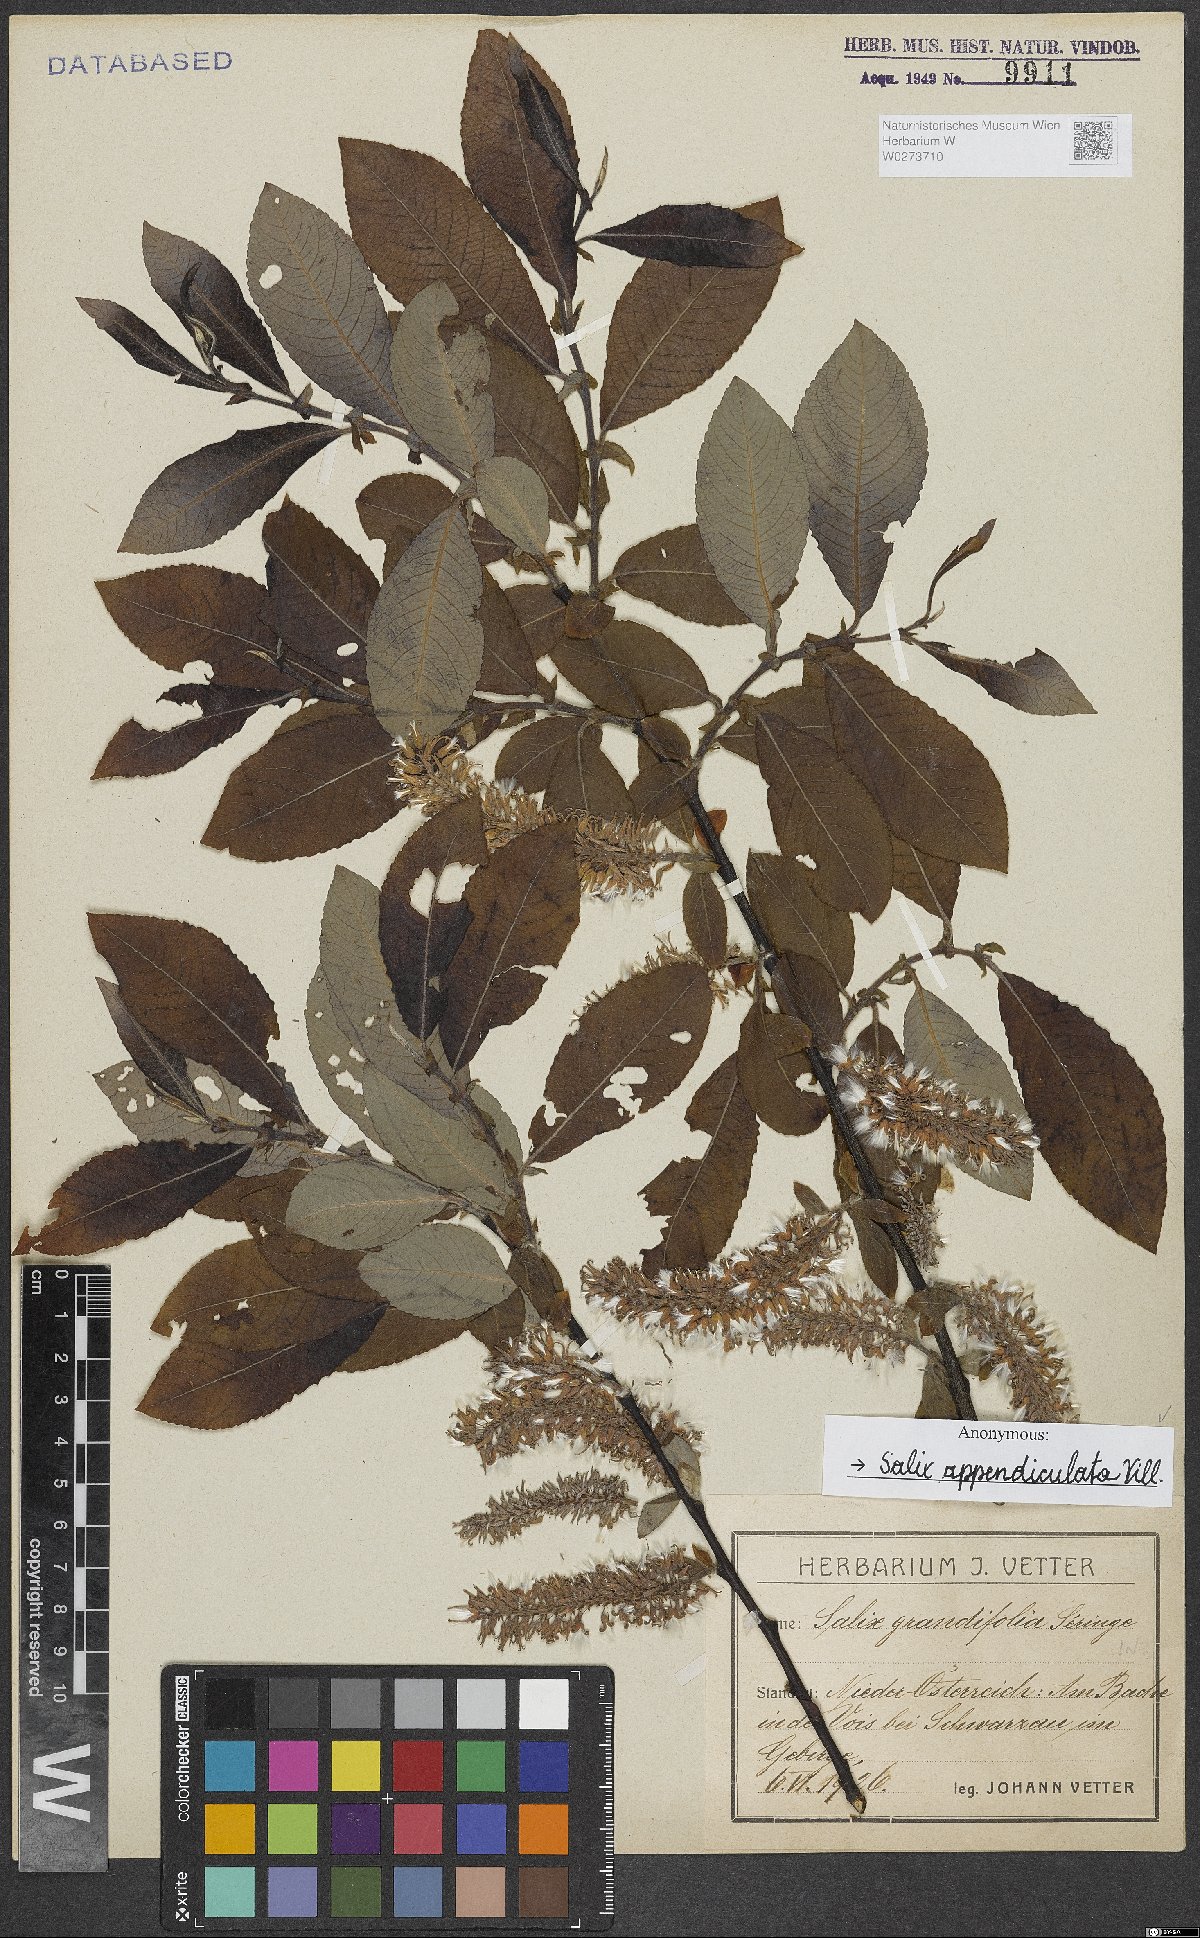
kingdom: Plantae
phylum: Tracheophyta
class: Magnoliopsida
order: Malpighiales
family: Salicaceae
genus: Salix
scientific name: Salix appendiculata
